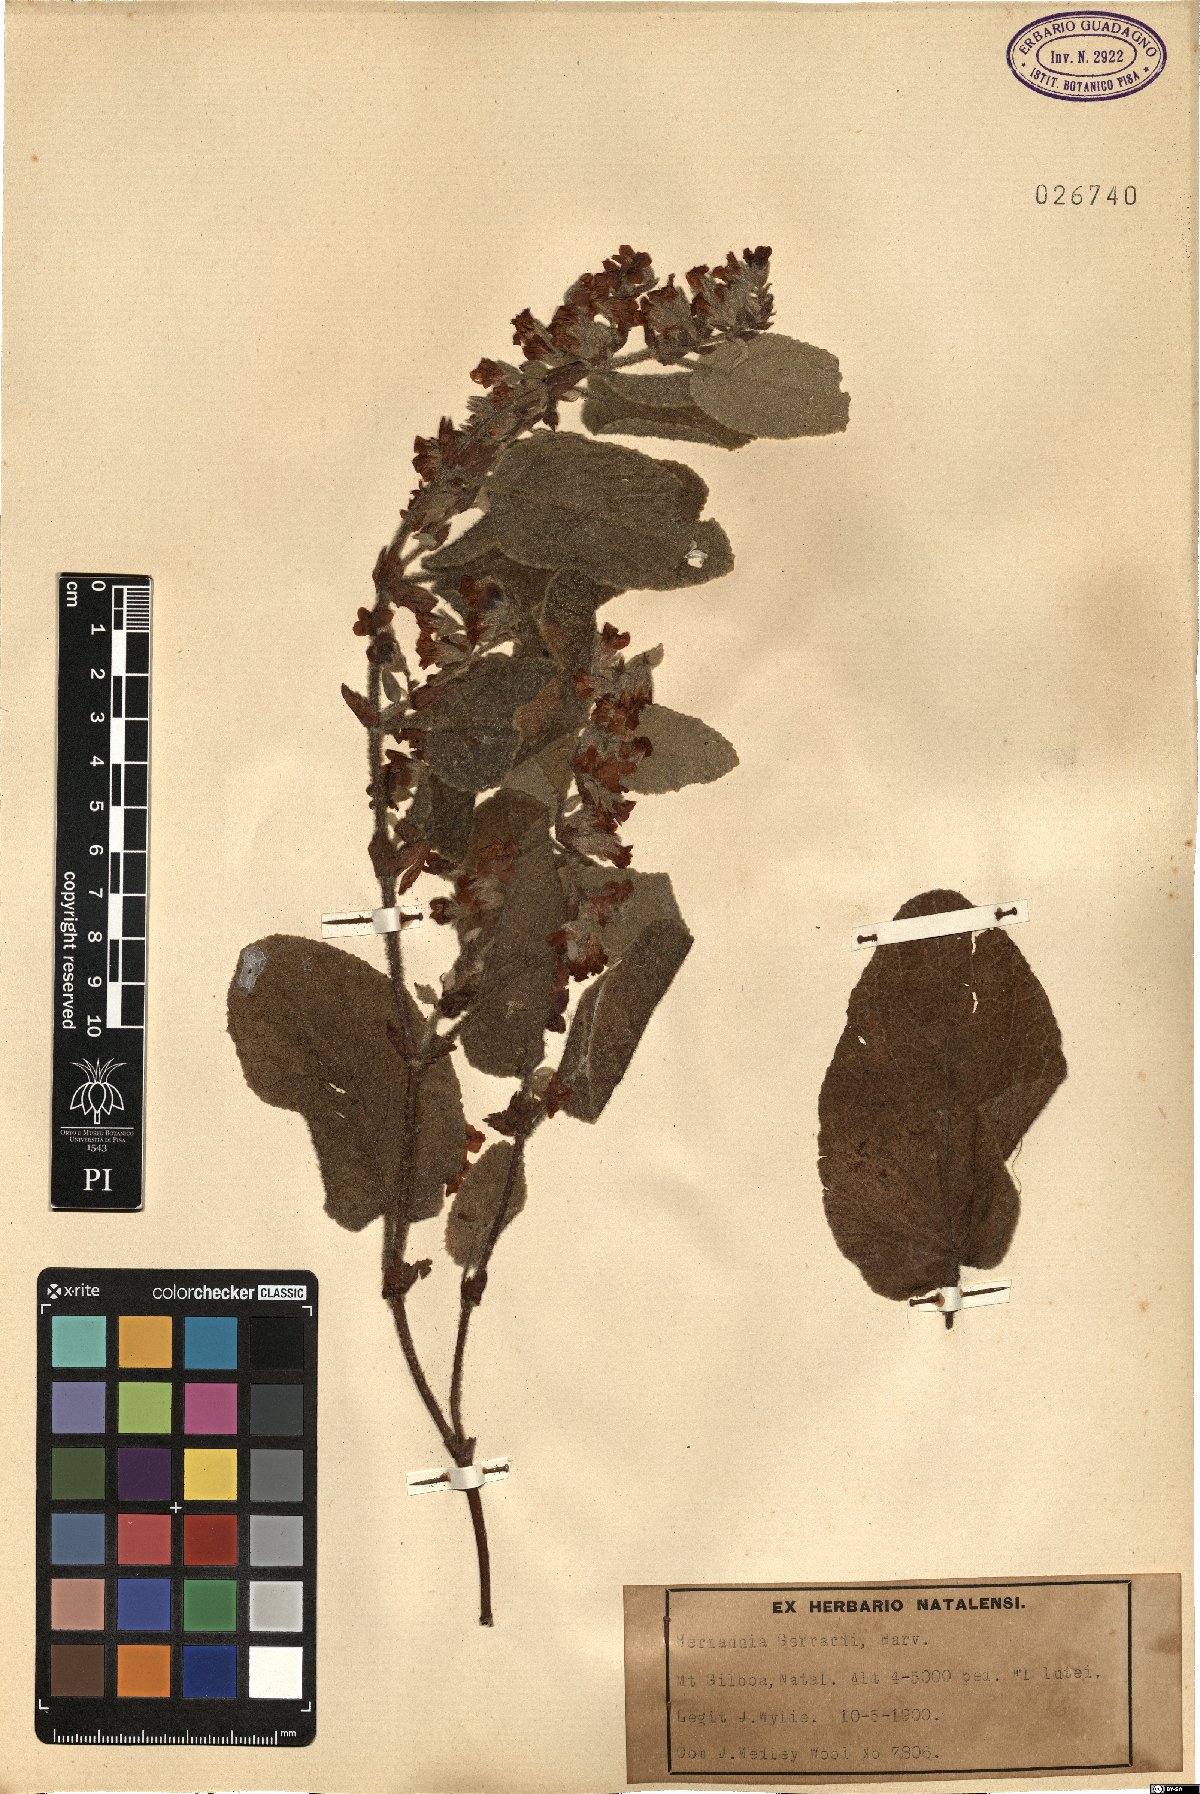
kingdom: Plantae
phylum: Tracheophyta
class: Magnoliopsida
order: Malvales
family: Malvaceae
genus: Hermannia
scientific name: Hermannia gerardii
